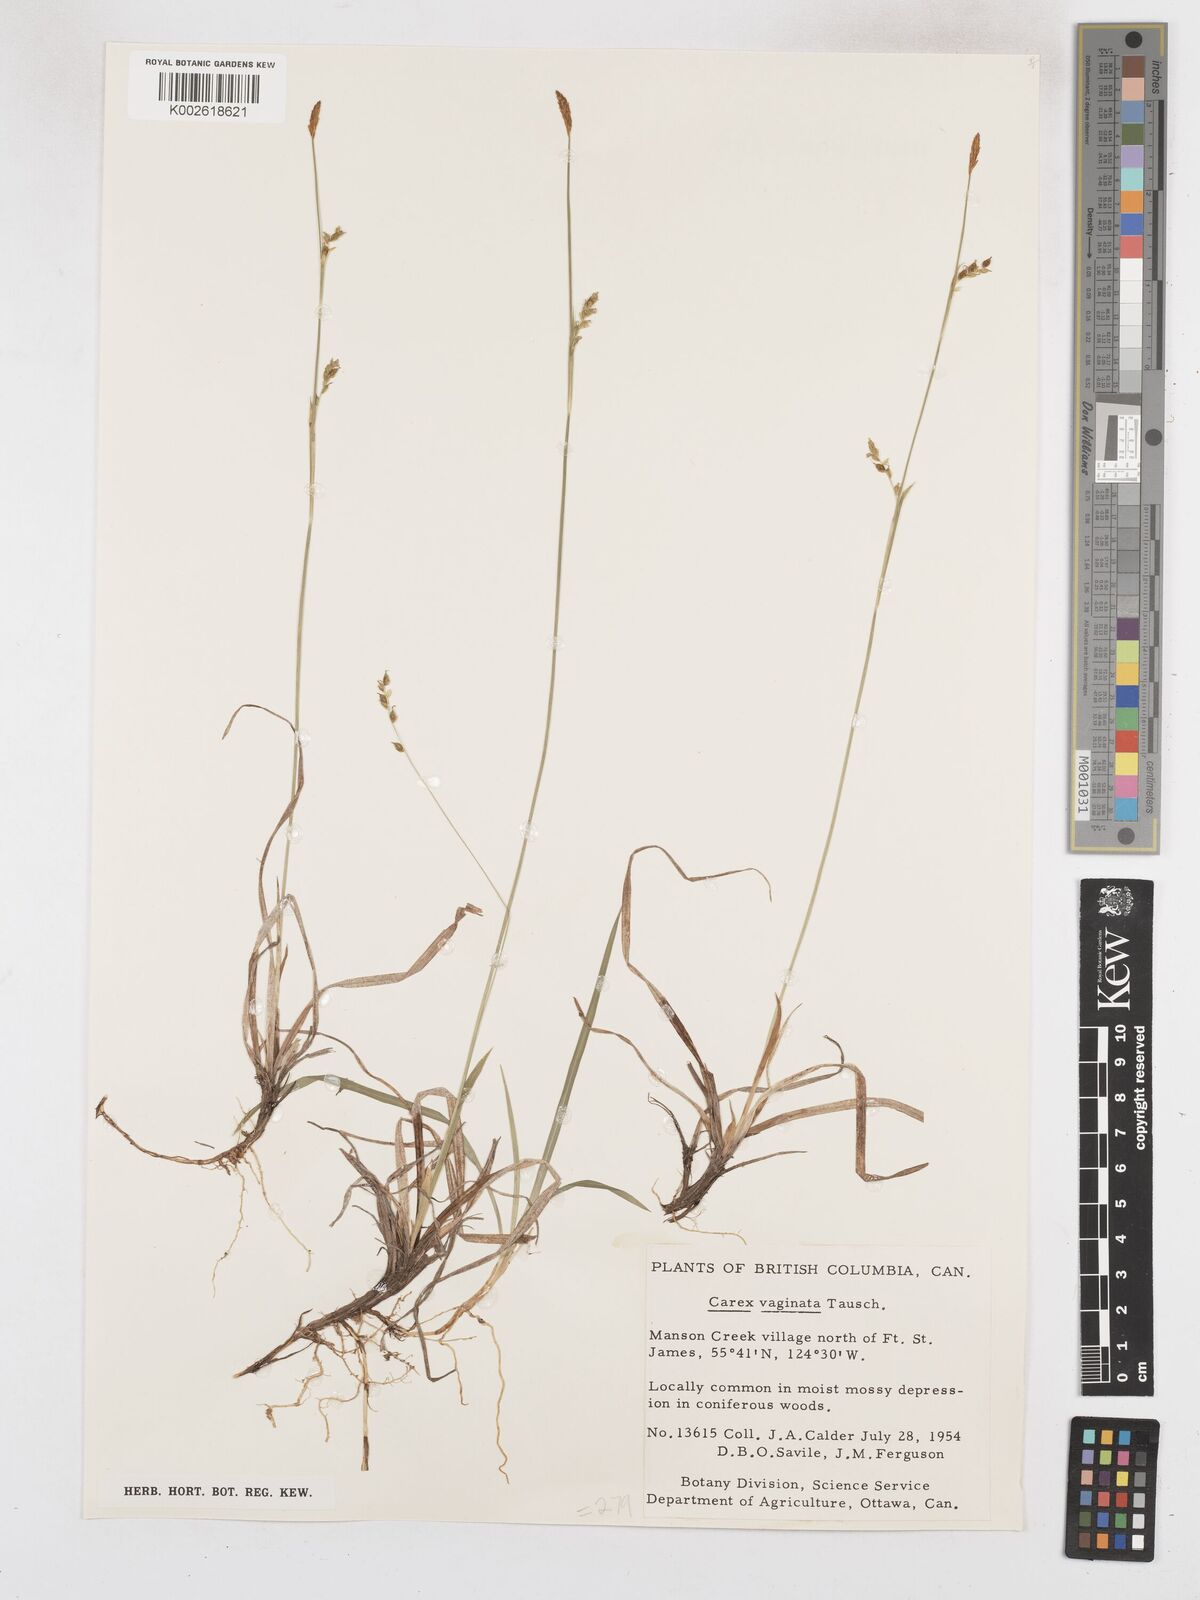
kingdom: Plantae
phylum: Tracheophyta
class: Liliopsida
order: Poales
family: Cyperaceae
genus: Carex
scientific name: Carex vaginata
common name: Sheathed sedge
